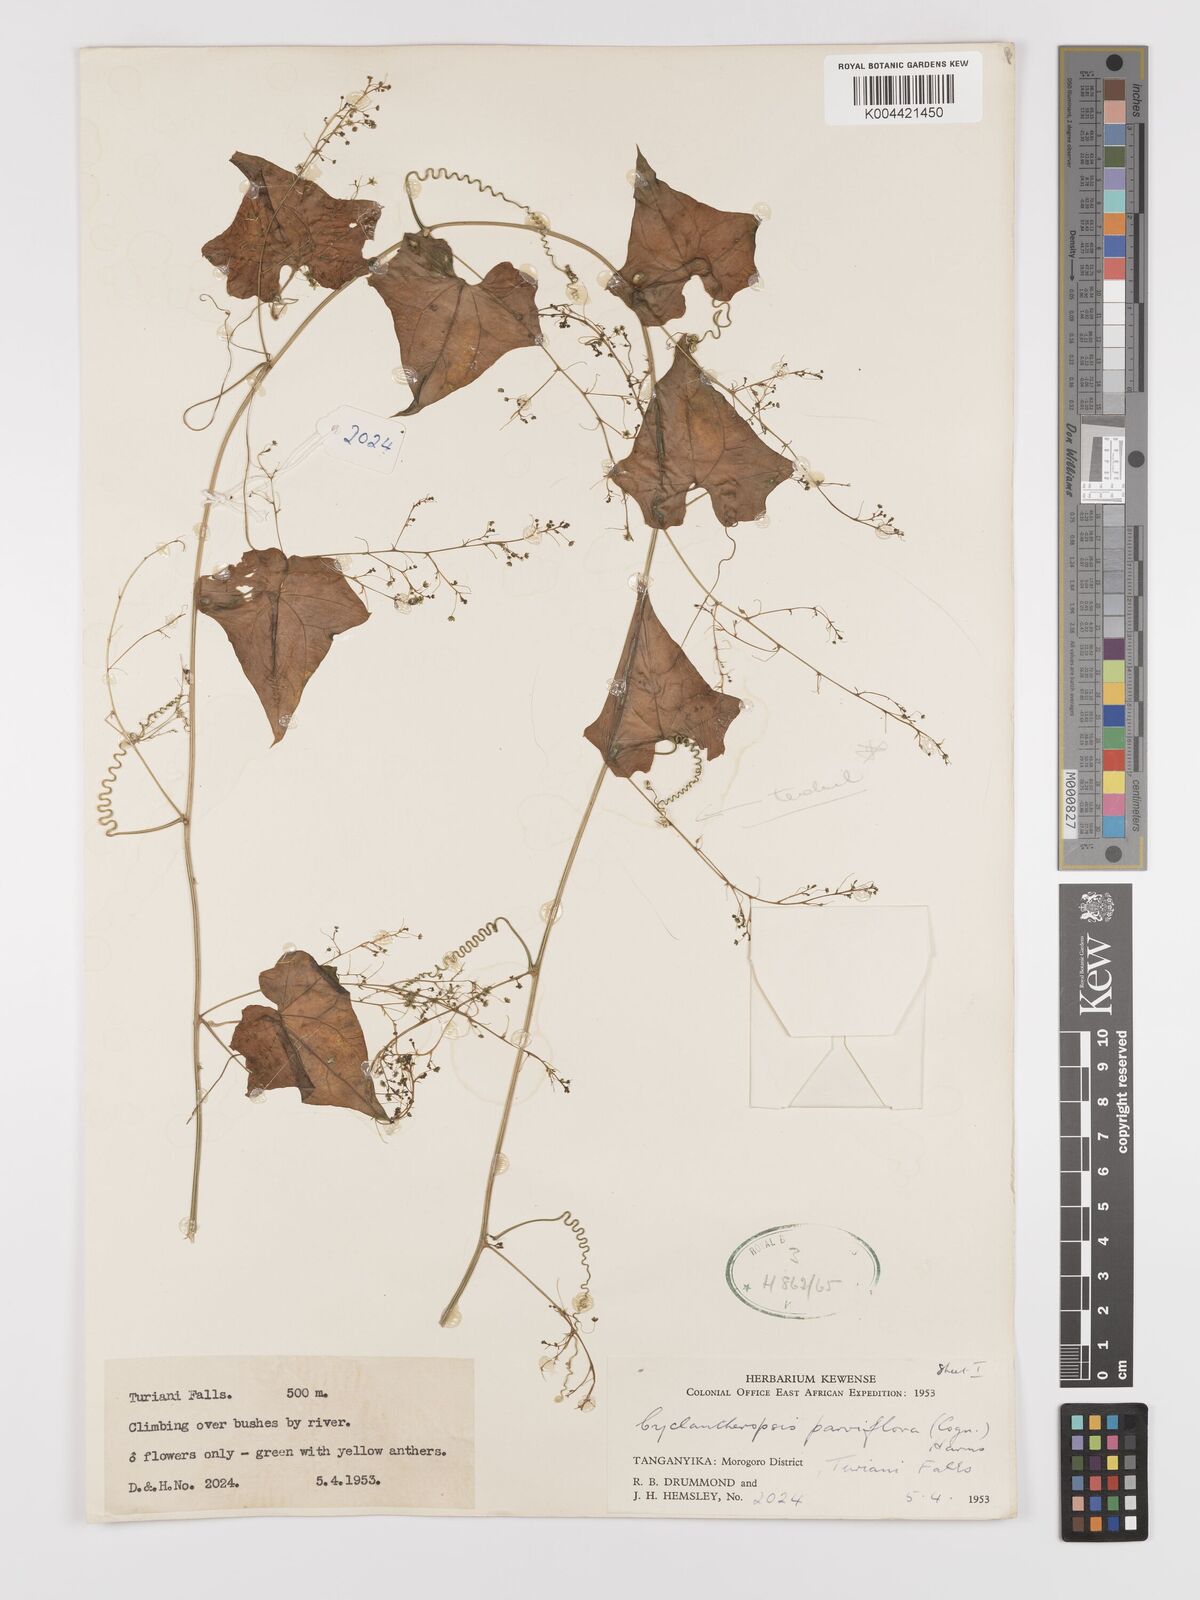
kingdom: Plantae
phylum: Tracheophyta
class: Magnoliopsida
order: Cucurbitales
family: Cucurbitaceae
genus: Cyclantheropsis
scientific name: Cyclantheropsis parviflora
